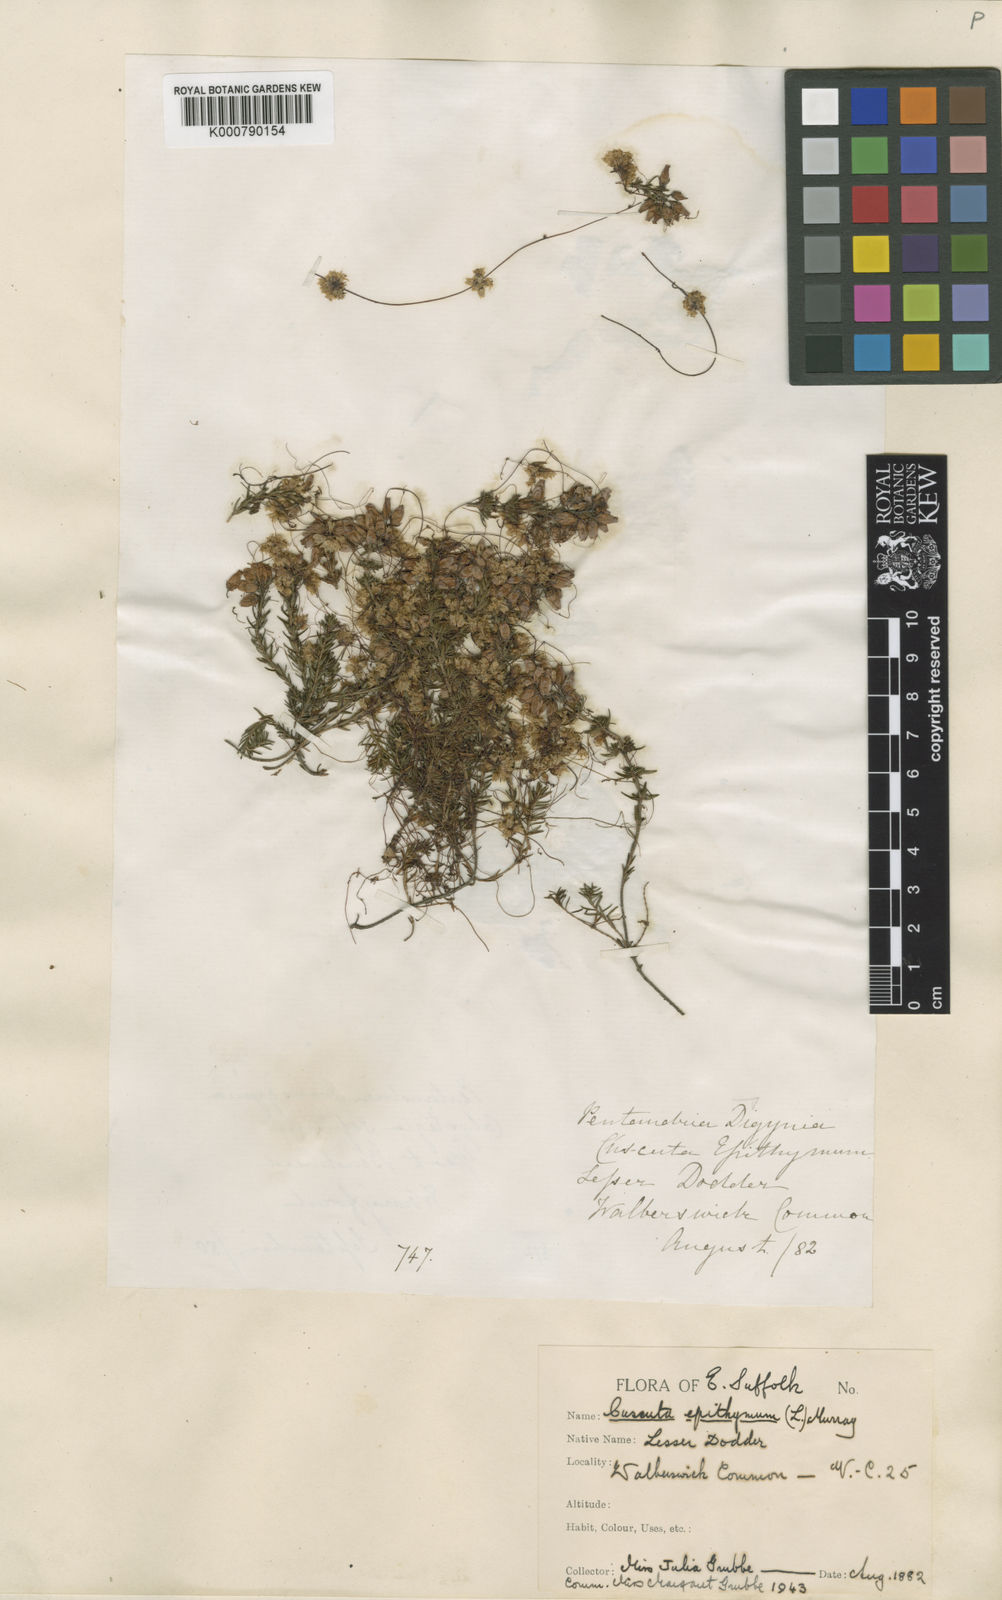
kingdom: Plantae
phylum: Tracheophyta
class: Magnoliopsida
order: Solanales
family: Convolvulaceae
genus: Cuscuta
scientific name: Cuscuta epithymum
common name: Clover dodder
